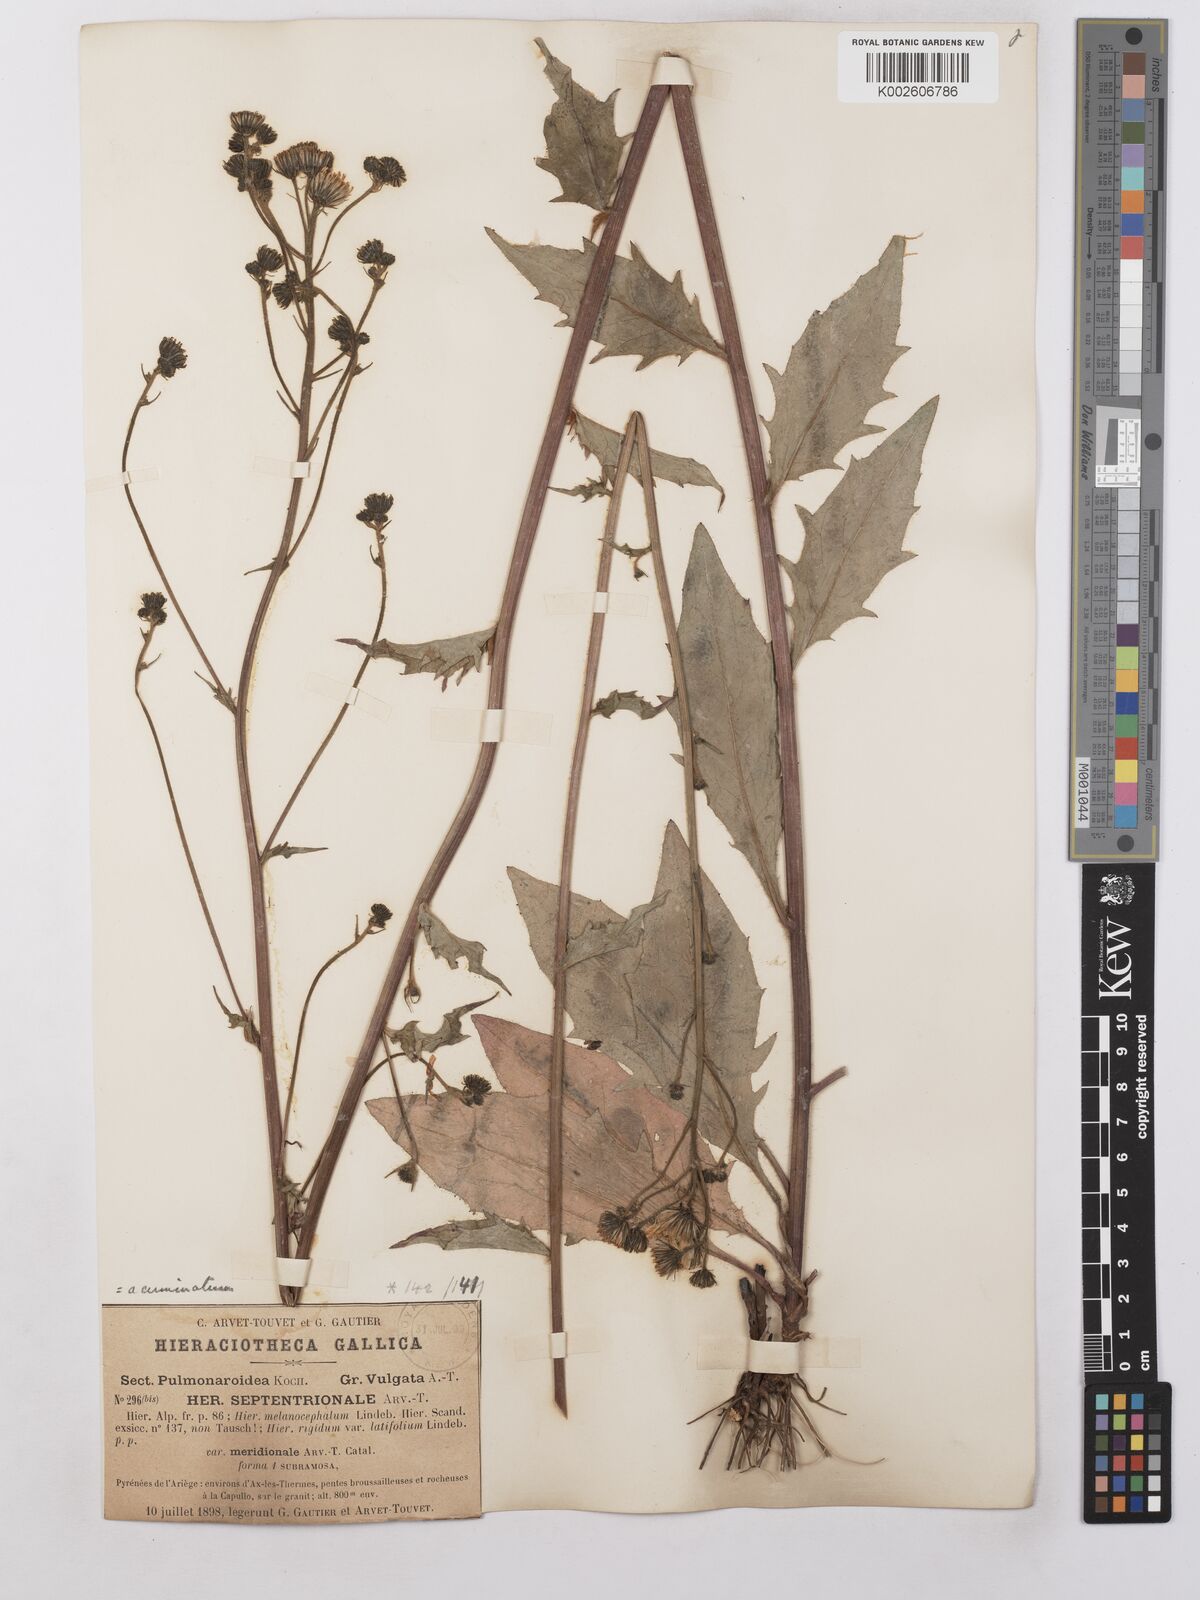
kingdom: Plantae
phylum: Tracheophyta
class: Magnoliopsida
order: Asterales
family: Asteraceae
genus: Hieracium
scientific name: Hieracium lachenalii
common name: Common hawkweed
